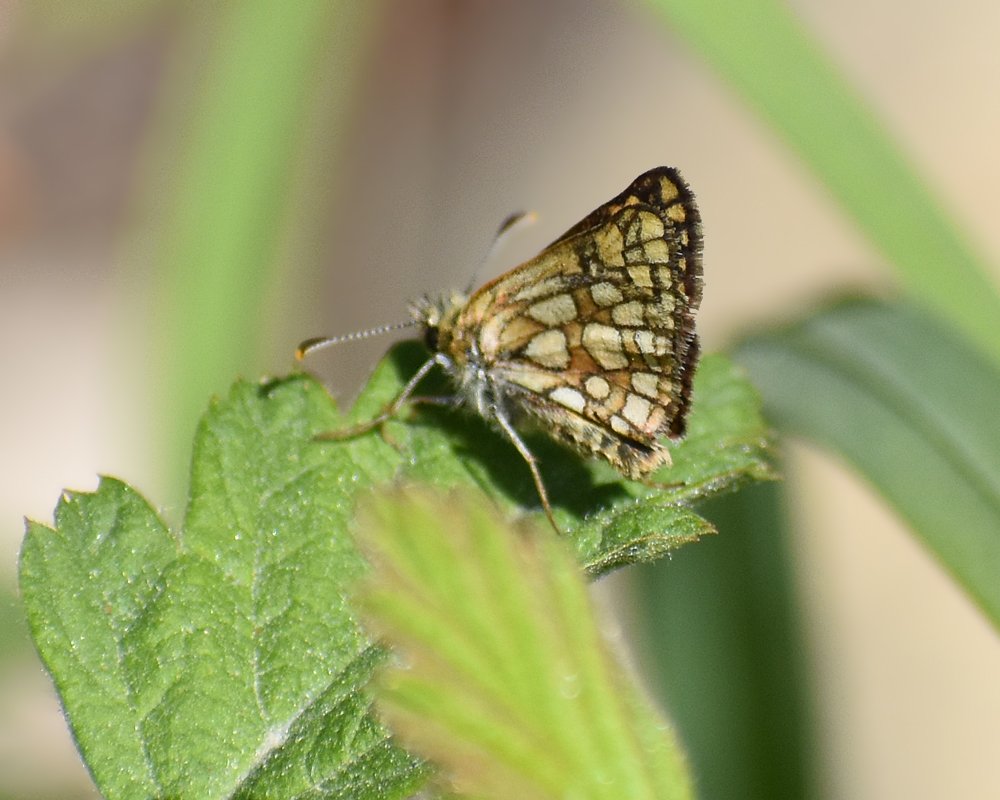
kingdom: Animalia
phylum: Arthropoda
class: Insecta
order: Lepidoptera
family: Hesperiidae
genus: Carterocephalus
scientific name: Carterocephalus palaemon
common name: Chequered Skipper
